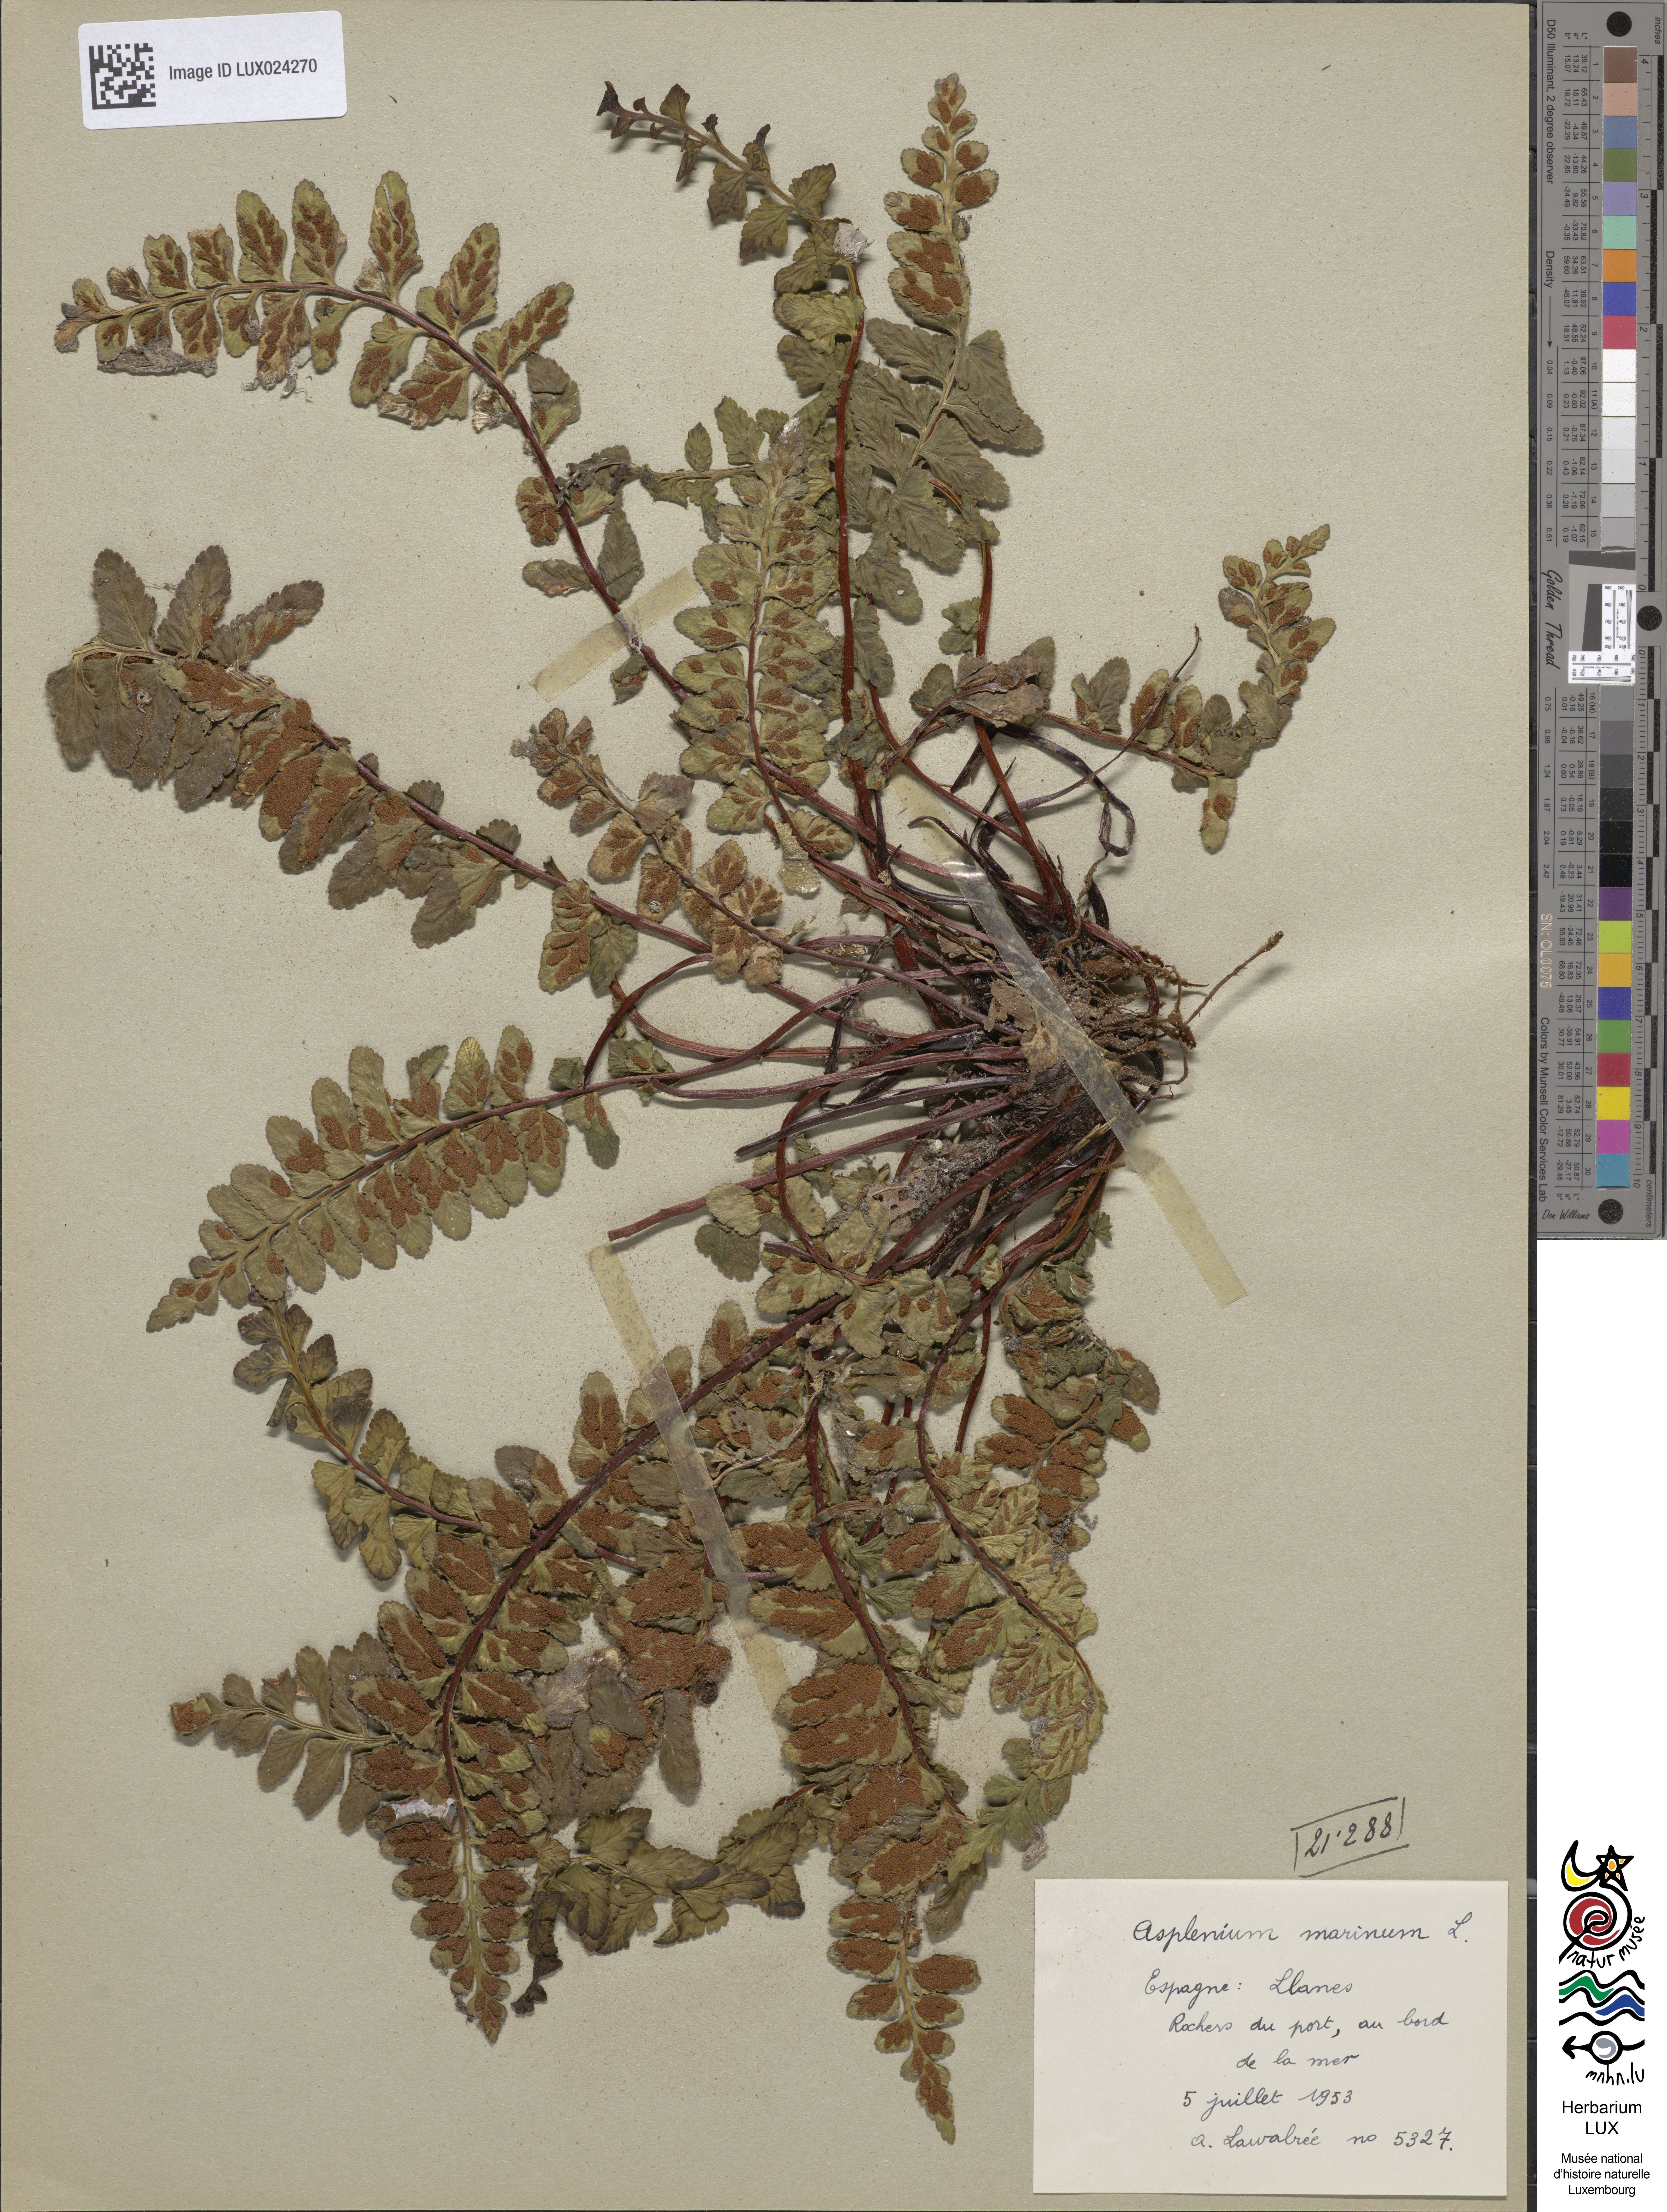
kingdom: Plantae
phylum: Tracheophyta
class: Polypodiopsida
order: Polypodiales
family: Aspleniaceae
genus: Asplenium
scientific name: Asplenium marinum
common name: Sea spleenwort
